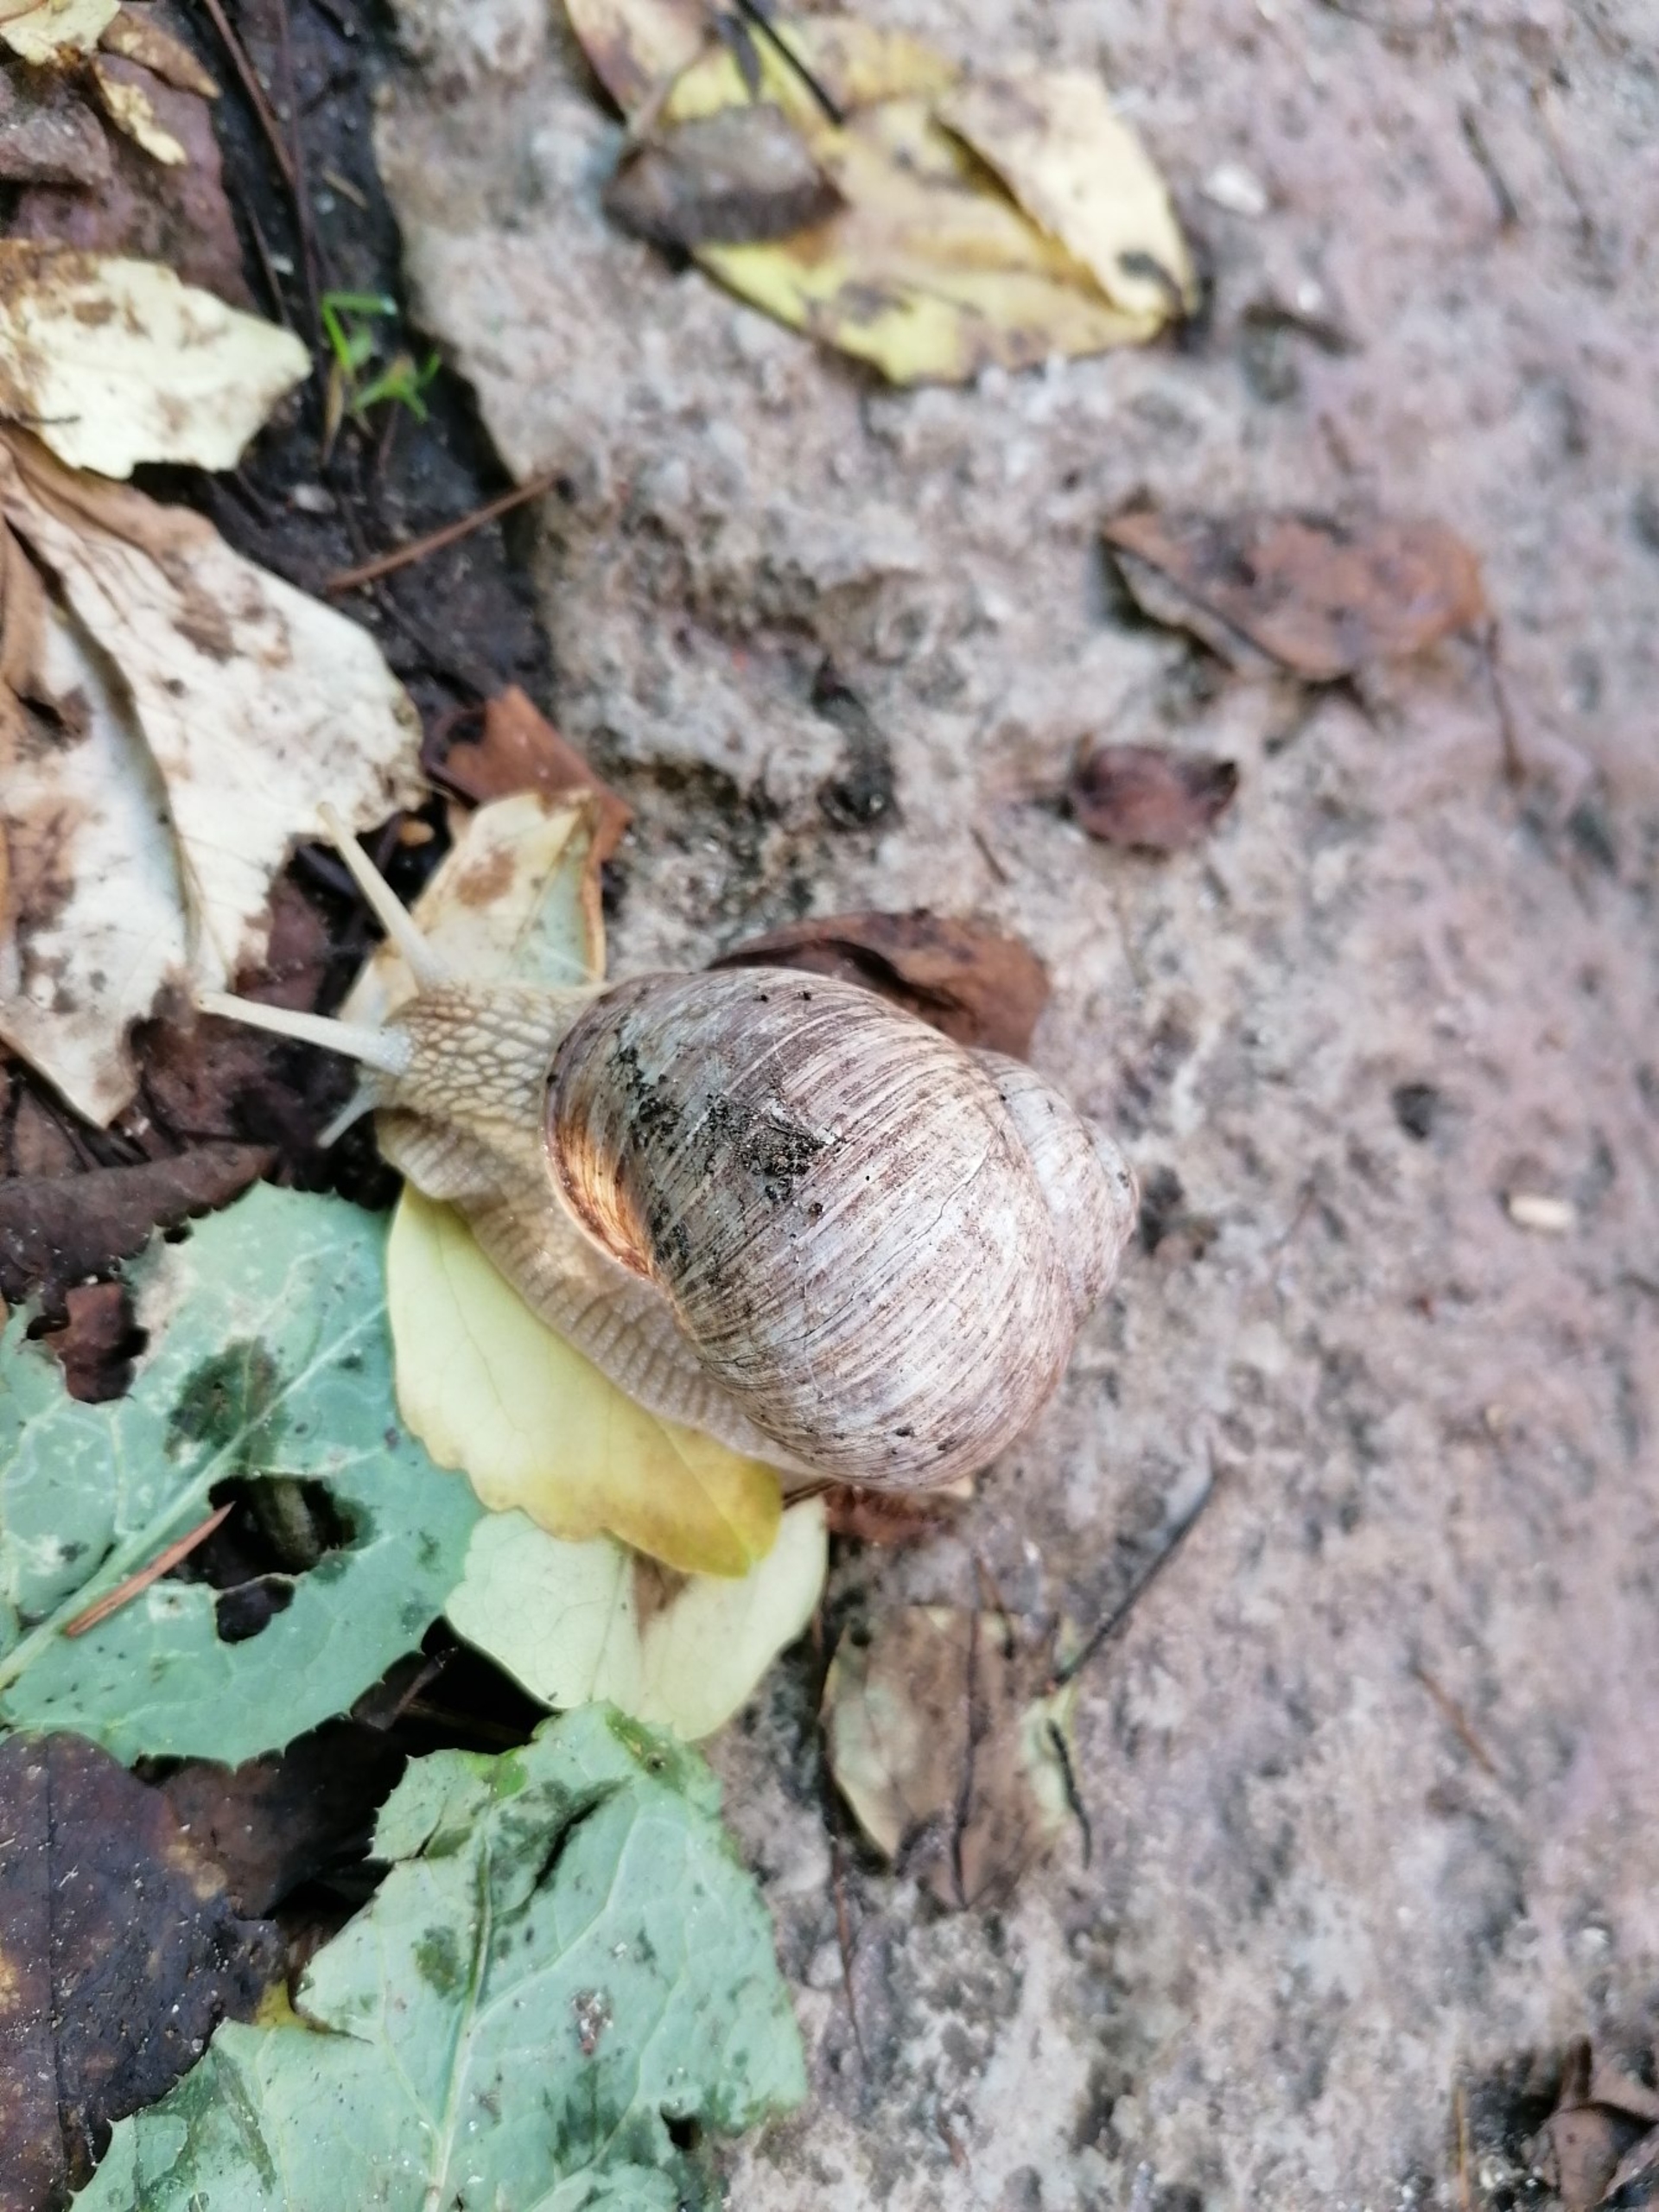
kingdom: Animalia
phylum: Mollusca
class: Gastropoda
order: Stylommatophora
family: Helicidae
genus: Helix
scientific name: Helix pomatia
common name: Vinbjergsnegl
